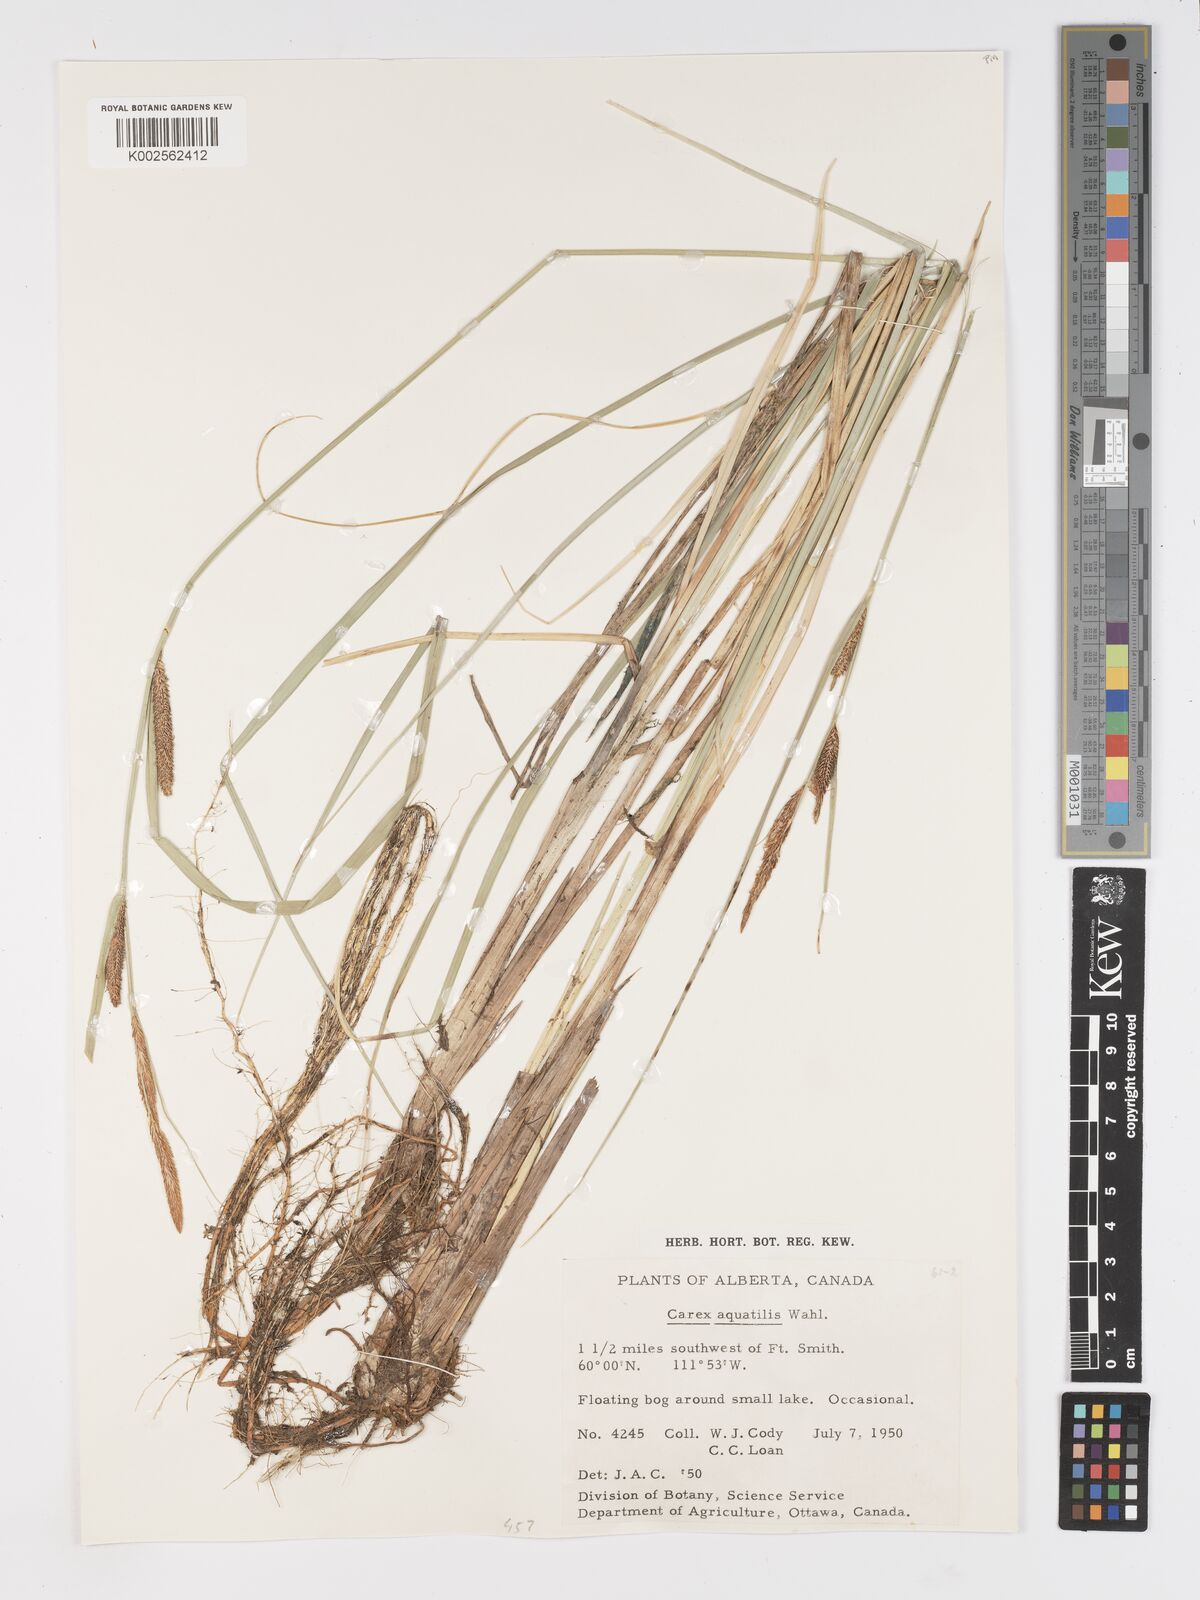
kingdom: Plantae
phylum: Tracheophyta
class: Liliopsida
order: Poales
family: Cyperaceae
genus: Carex
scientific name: Carex aquatilis
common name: Water sedge
